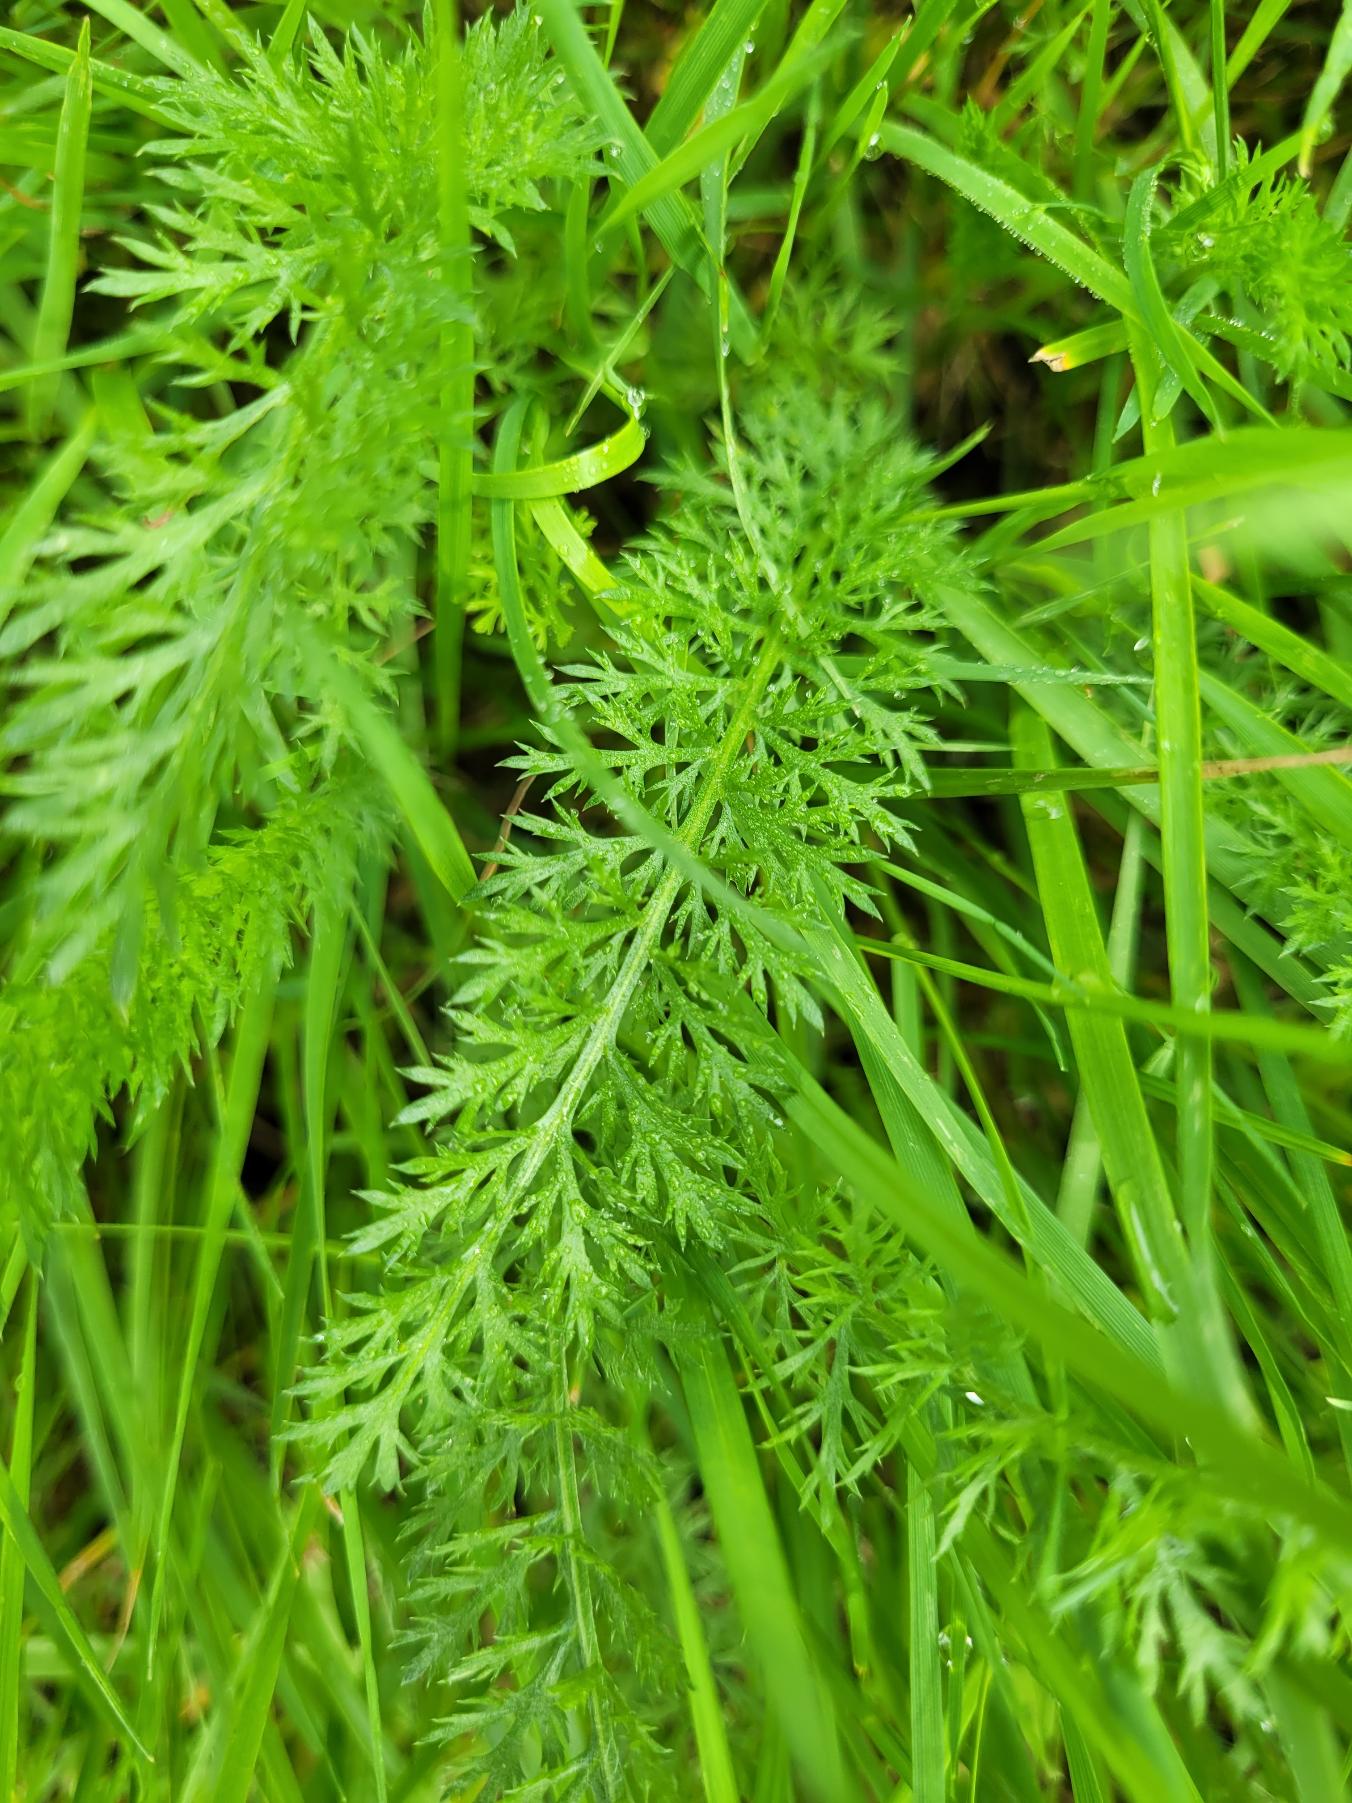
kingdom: Plantae
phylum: Tracheophyta
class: Magnoliopsida
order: Asterales
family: Asteraceae
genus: Achillea
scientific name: Achillea millefolium
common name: Almindelig røllike
